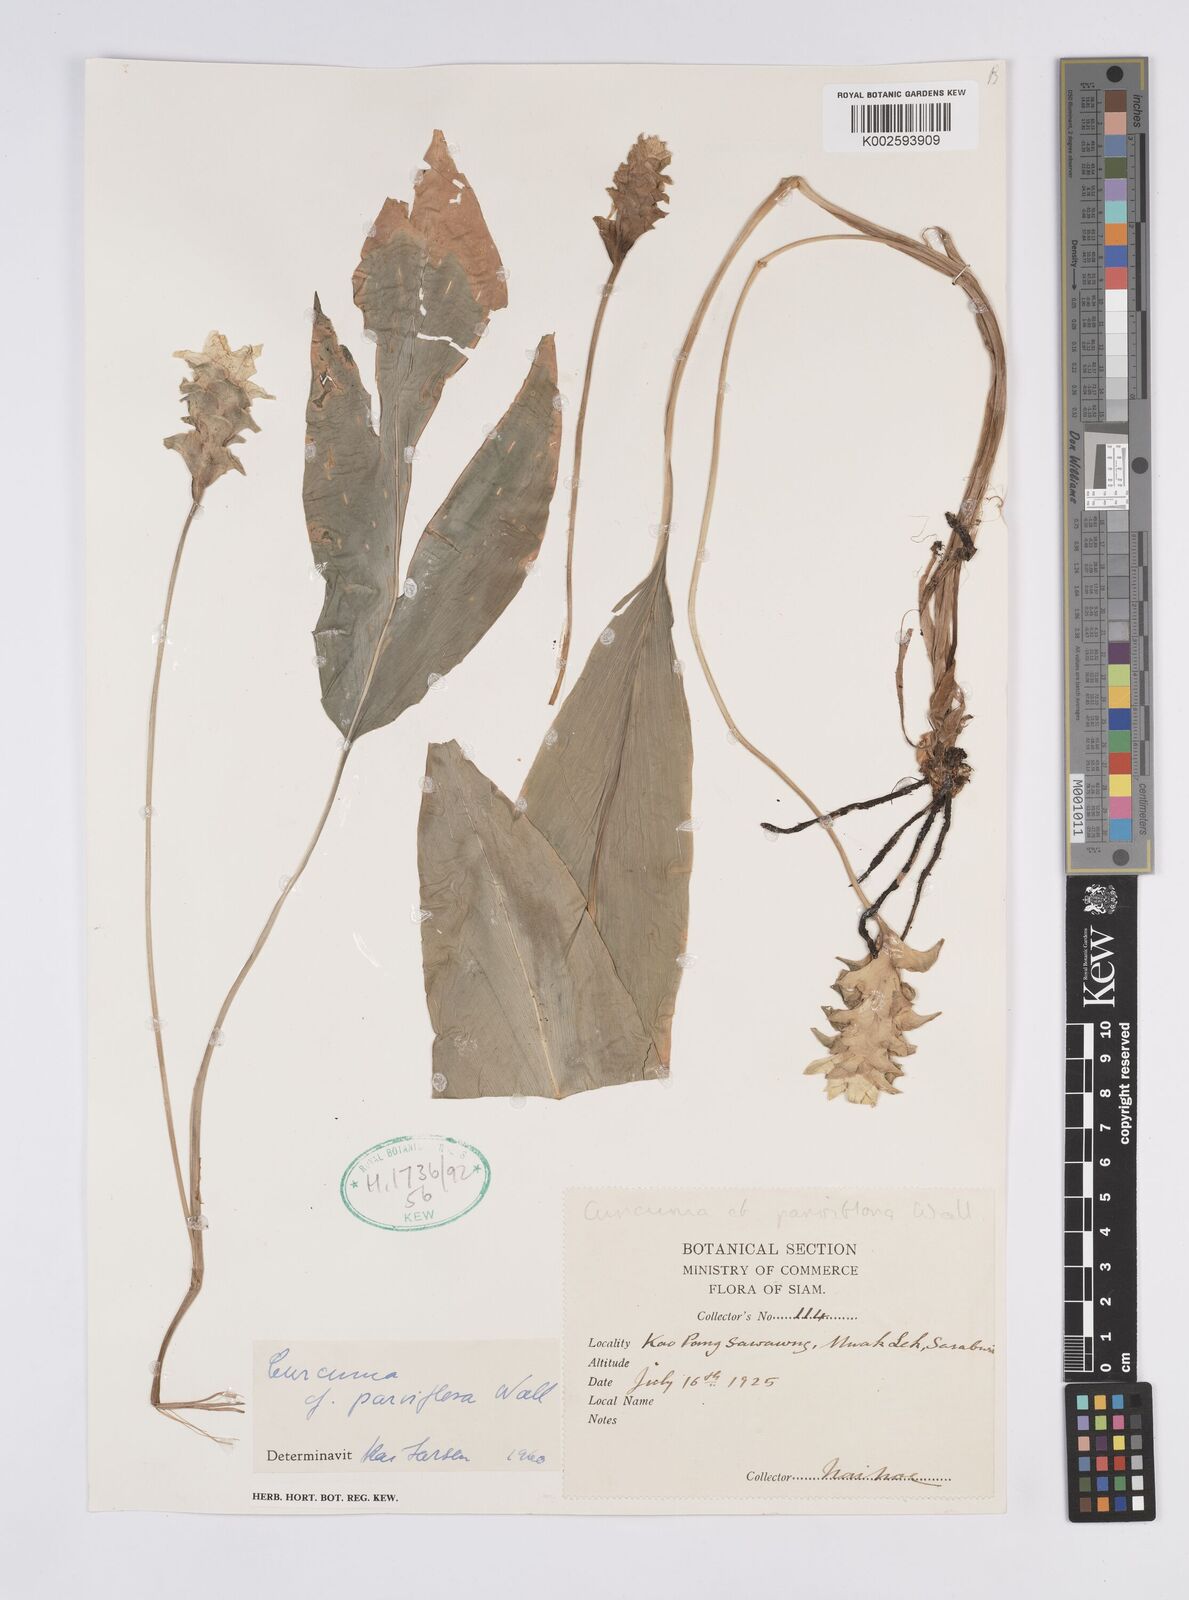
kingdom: Plantae
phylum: Tracheophyta
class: Liliopsida
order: Zingiberales
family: Zingiberaceae
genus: Curcuma
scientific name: Curcuma parviflora
